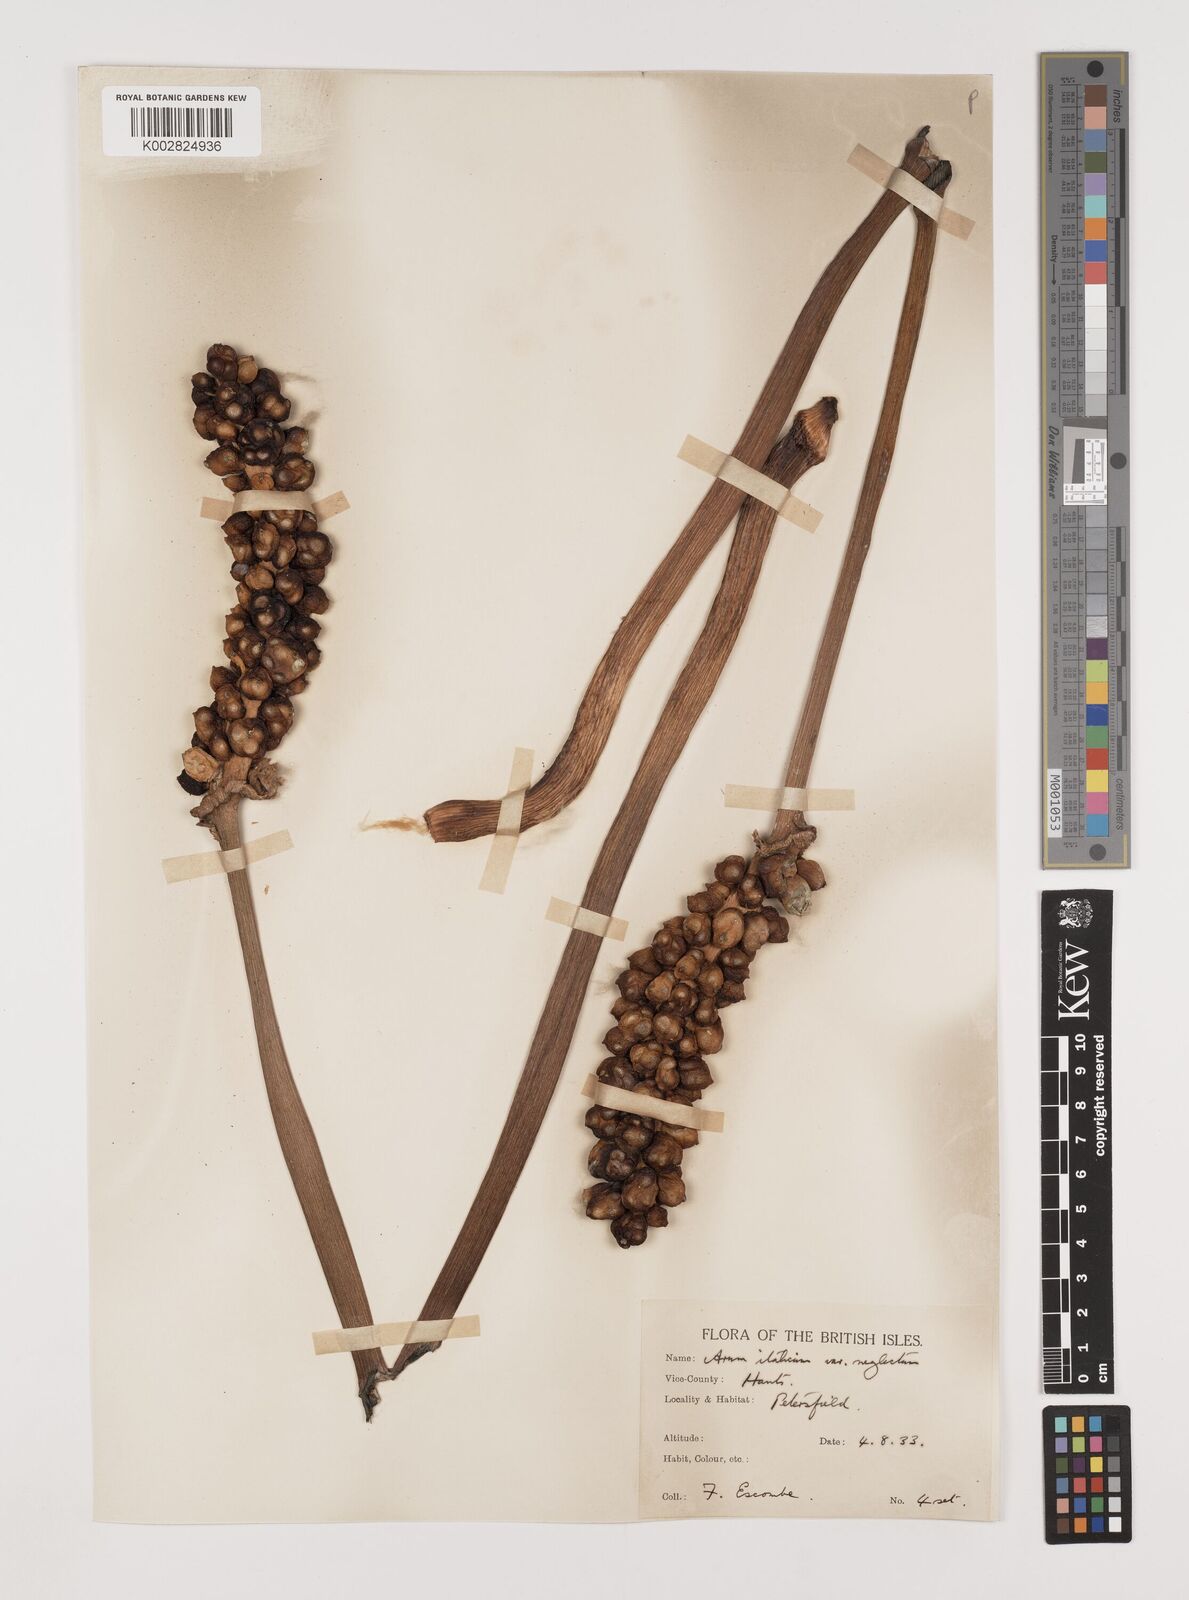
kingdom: Plantae
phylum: Tracheophyta
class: Liliopsida
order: Alismatales
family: Araceae
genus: Arum
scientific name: Arum italicum
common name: Italian lords-and-ladies
